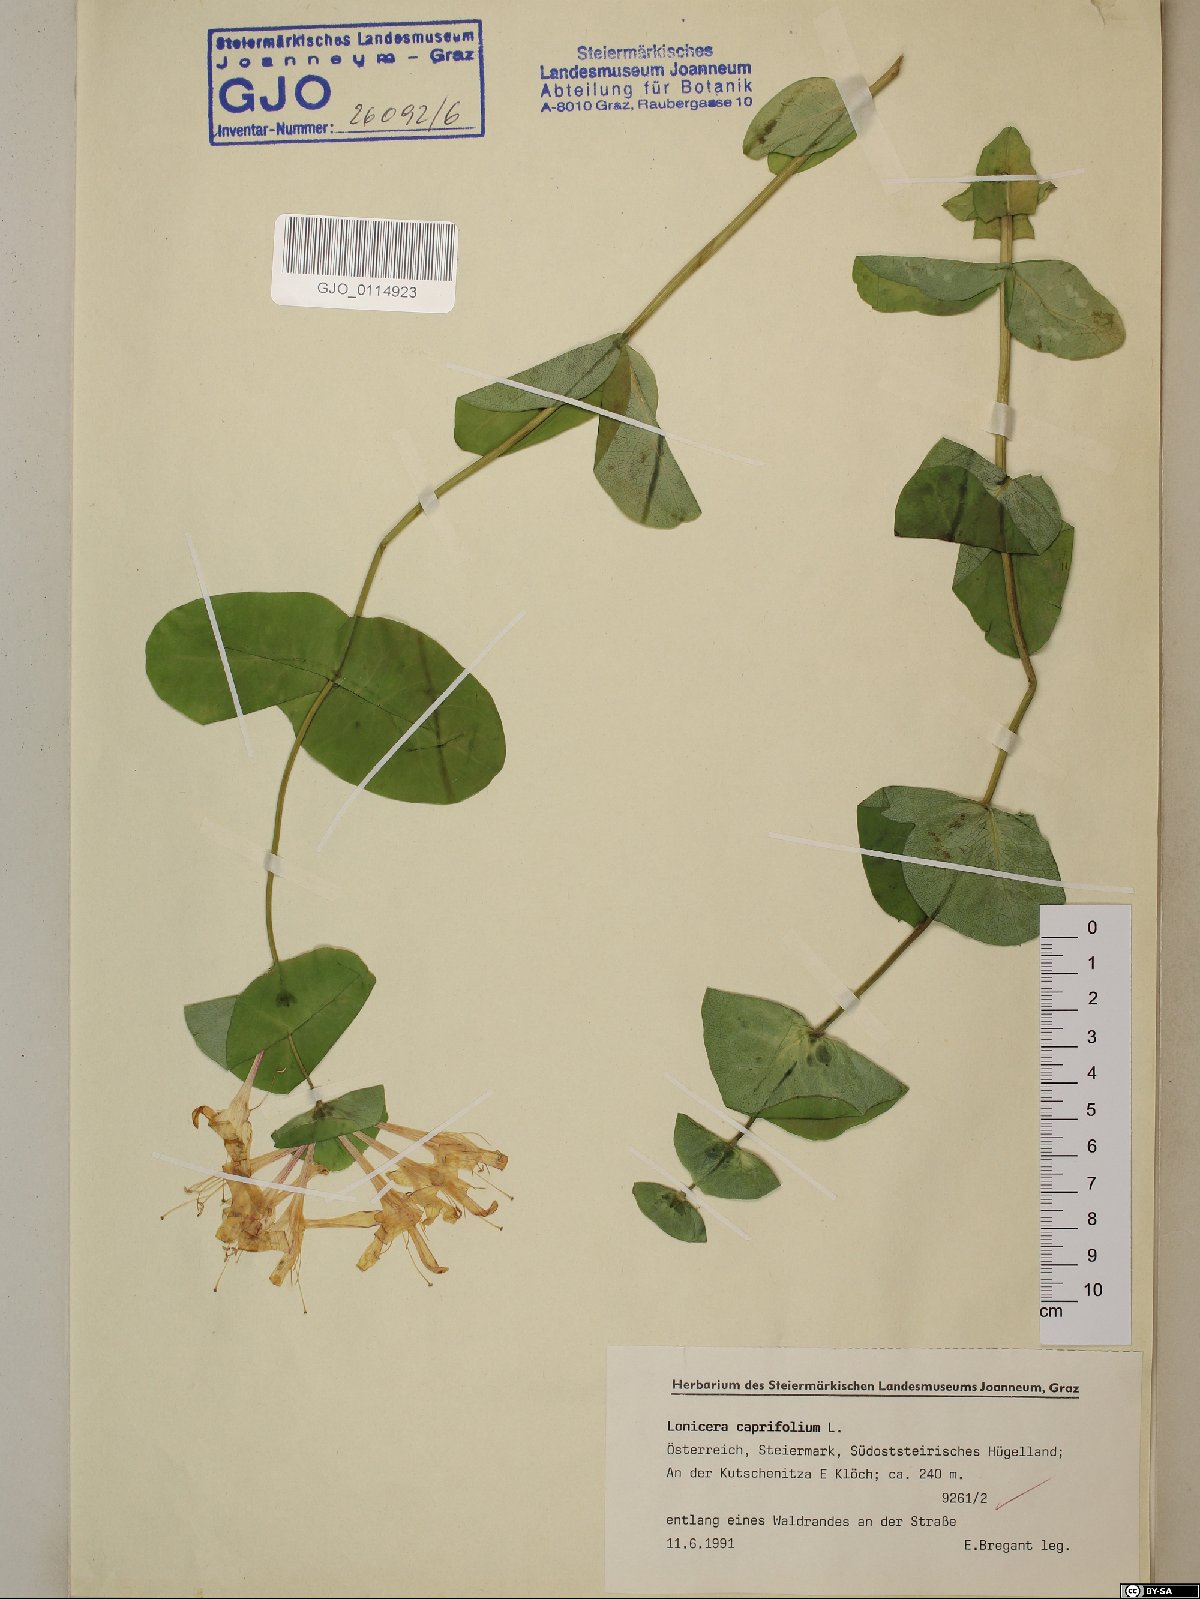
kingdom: Plantae
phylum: Tracheophyta
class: Magnoliopsida
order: Dipsacales
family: Caprifoliaceae
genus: Lonicera
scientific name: Lonicera caprifolium
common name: Perfoliate honeysuckle
